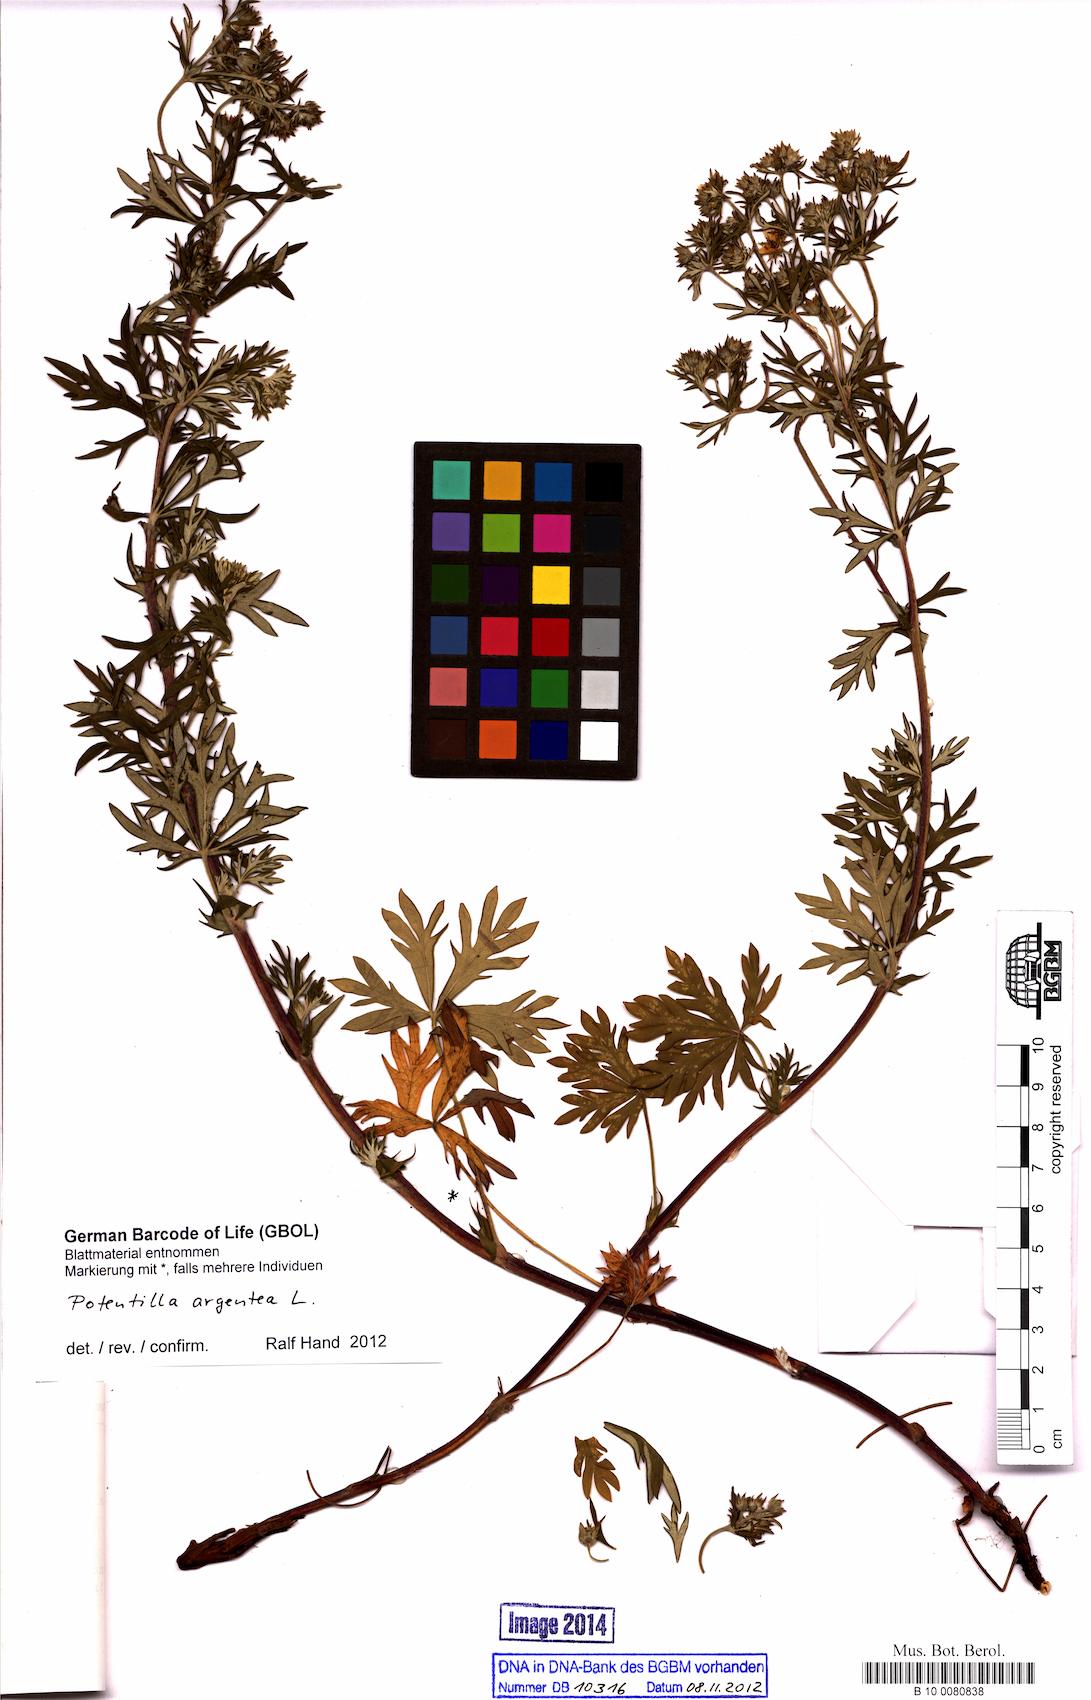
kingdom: Plantae
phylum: Tracheophyta
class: Magnoliopsida
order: Rosales
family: Rosaceae
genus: Potentilla
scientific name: Potentilla argentea
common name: Hoary cinquefoil
